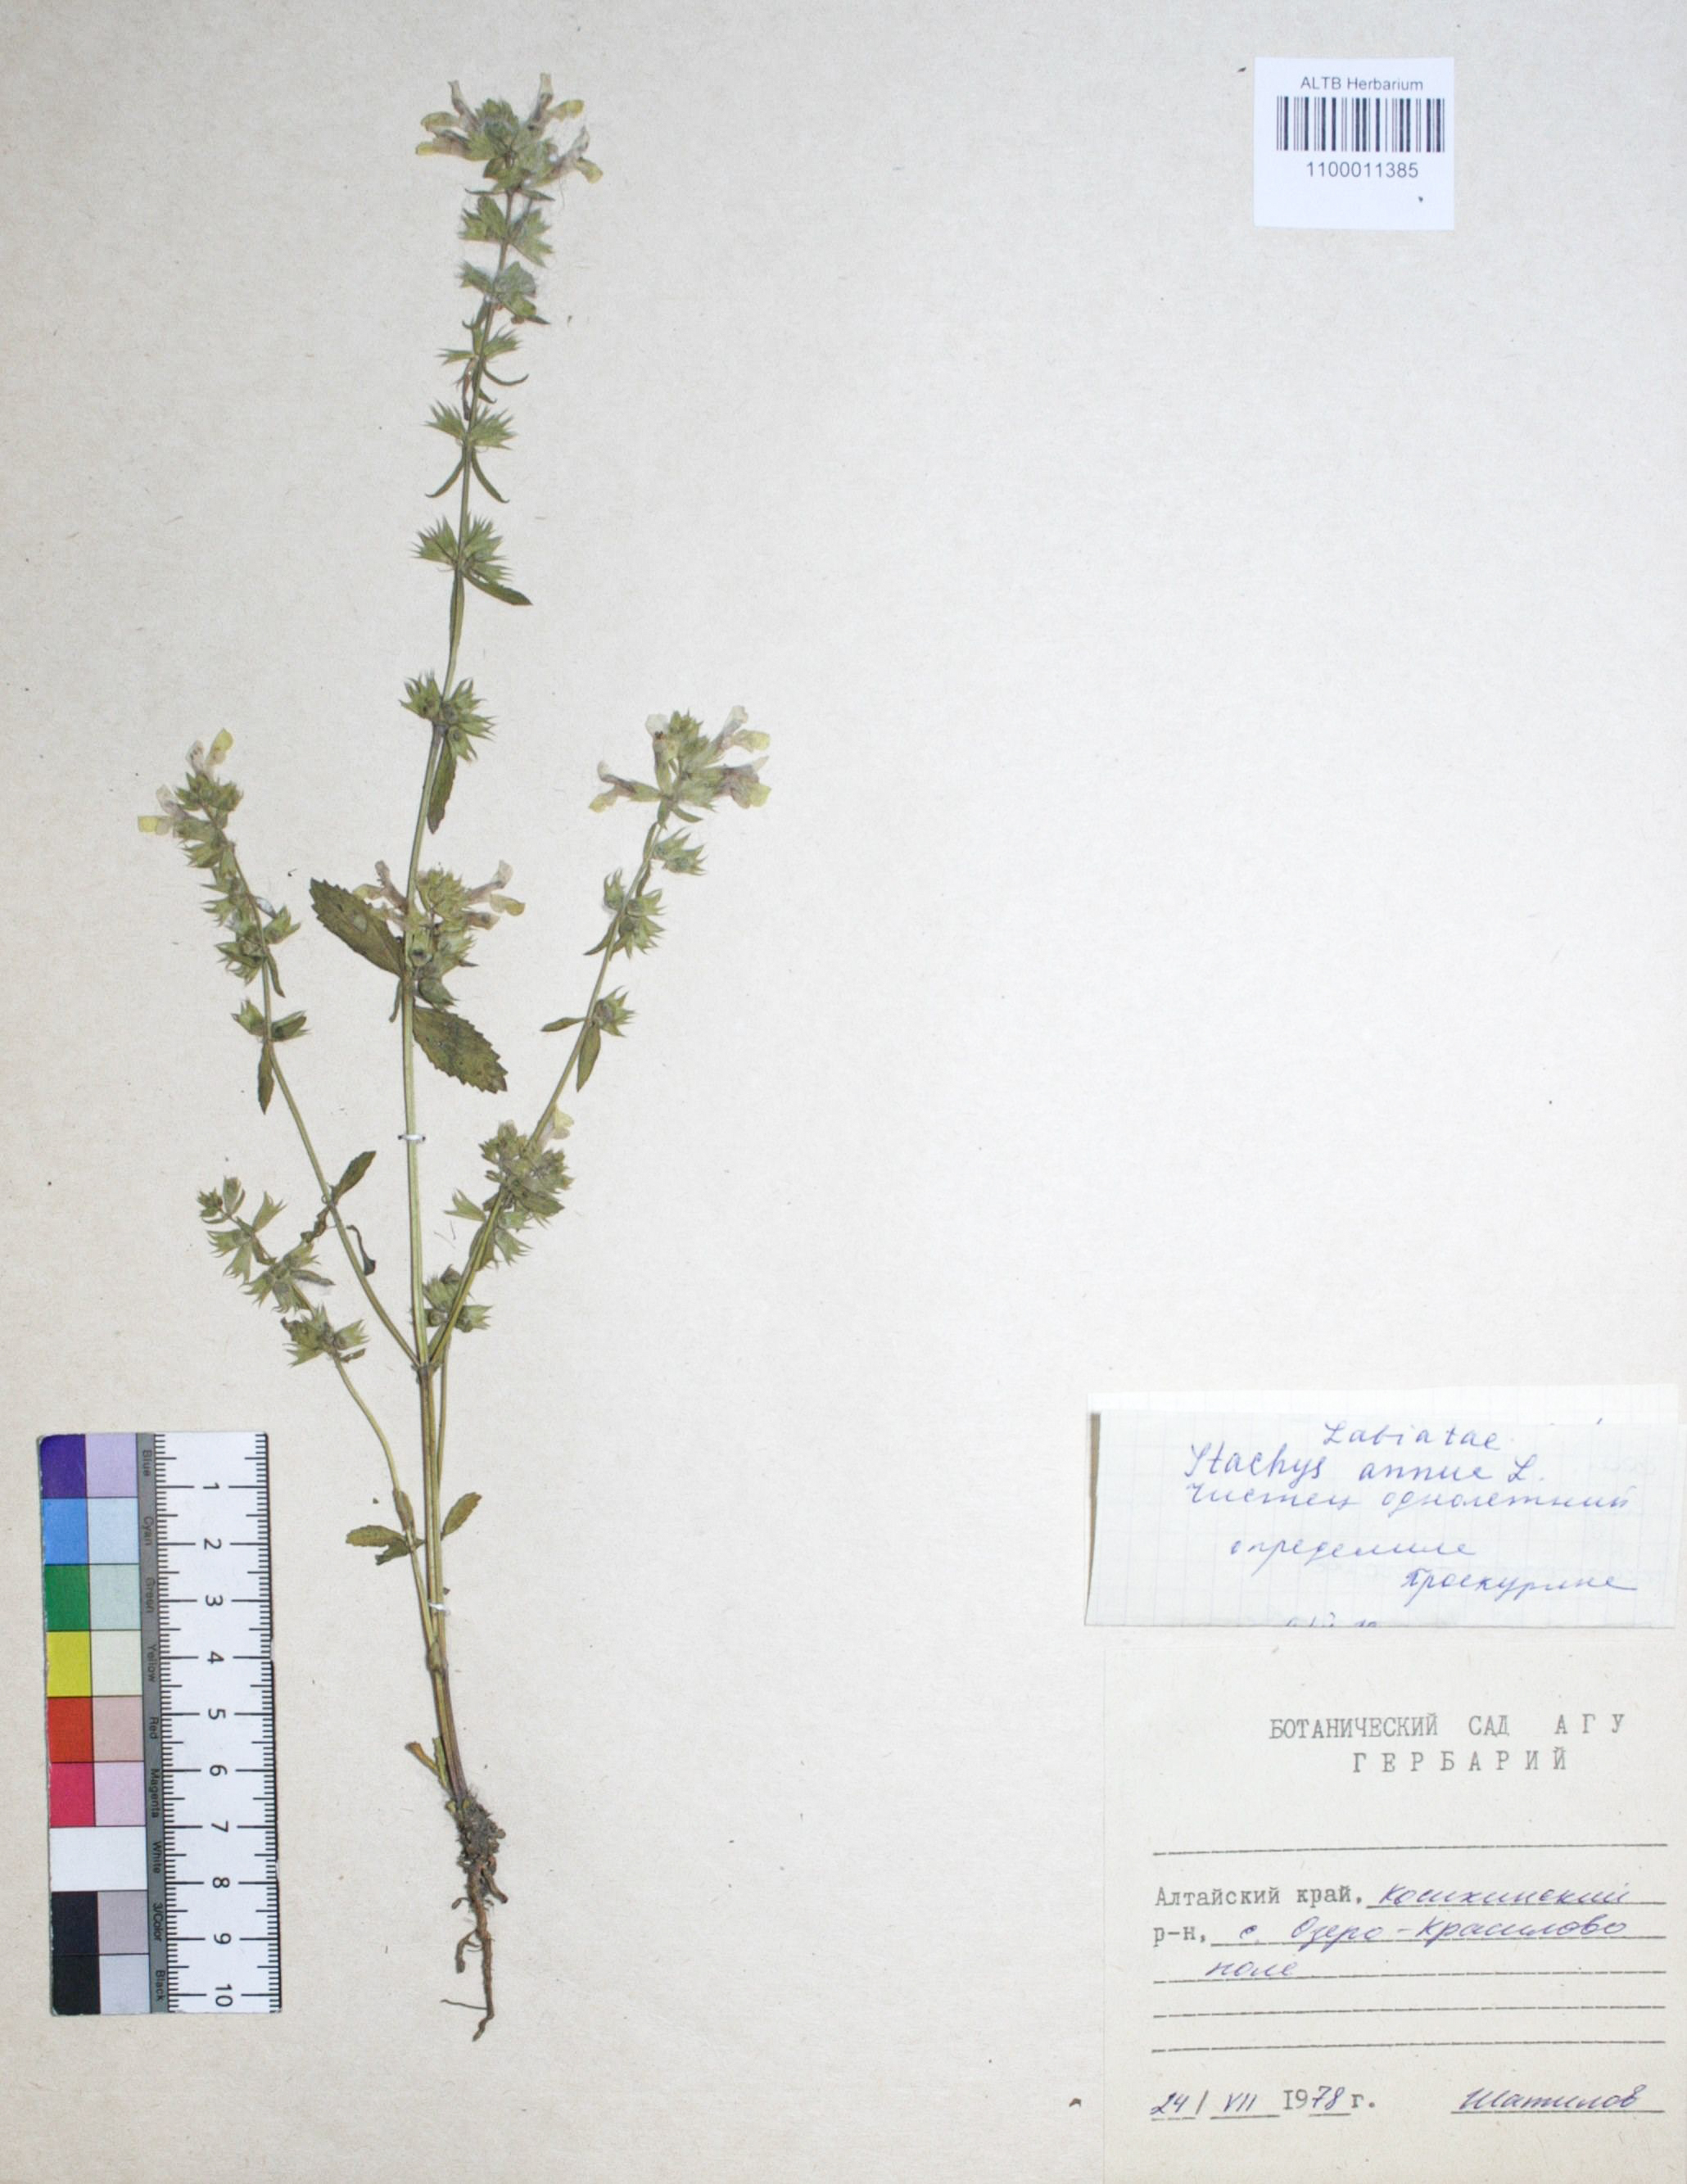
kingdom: Plantae
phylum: Tracheophyta
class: Magnoliopsida
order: Lamiales
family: Lamiaceae
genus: Stachys
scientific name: Stachys annua
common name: Annual yellow-woundwort
